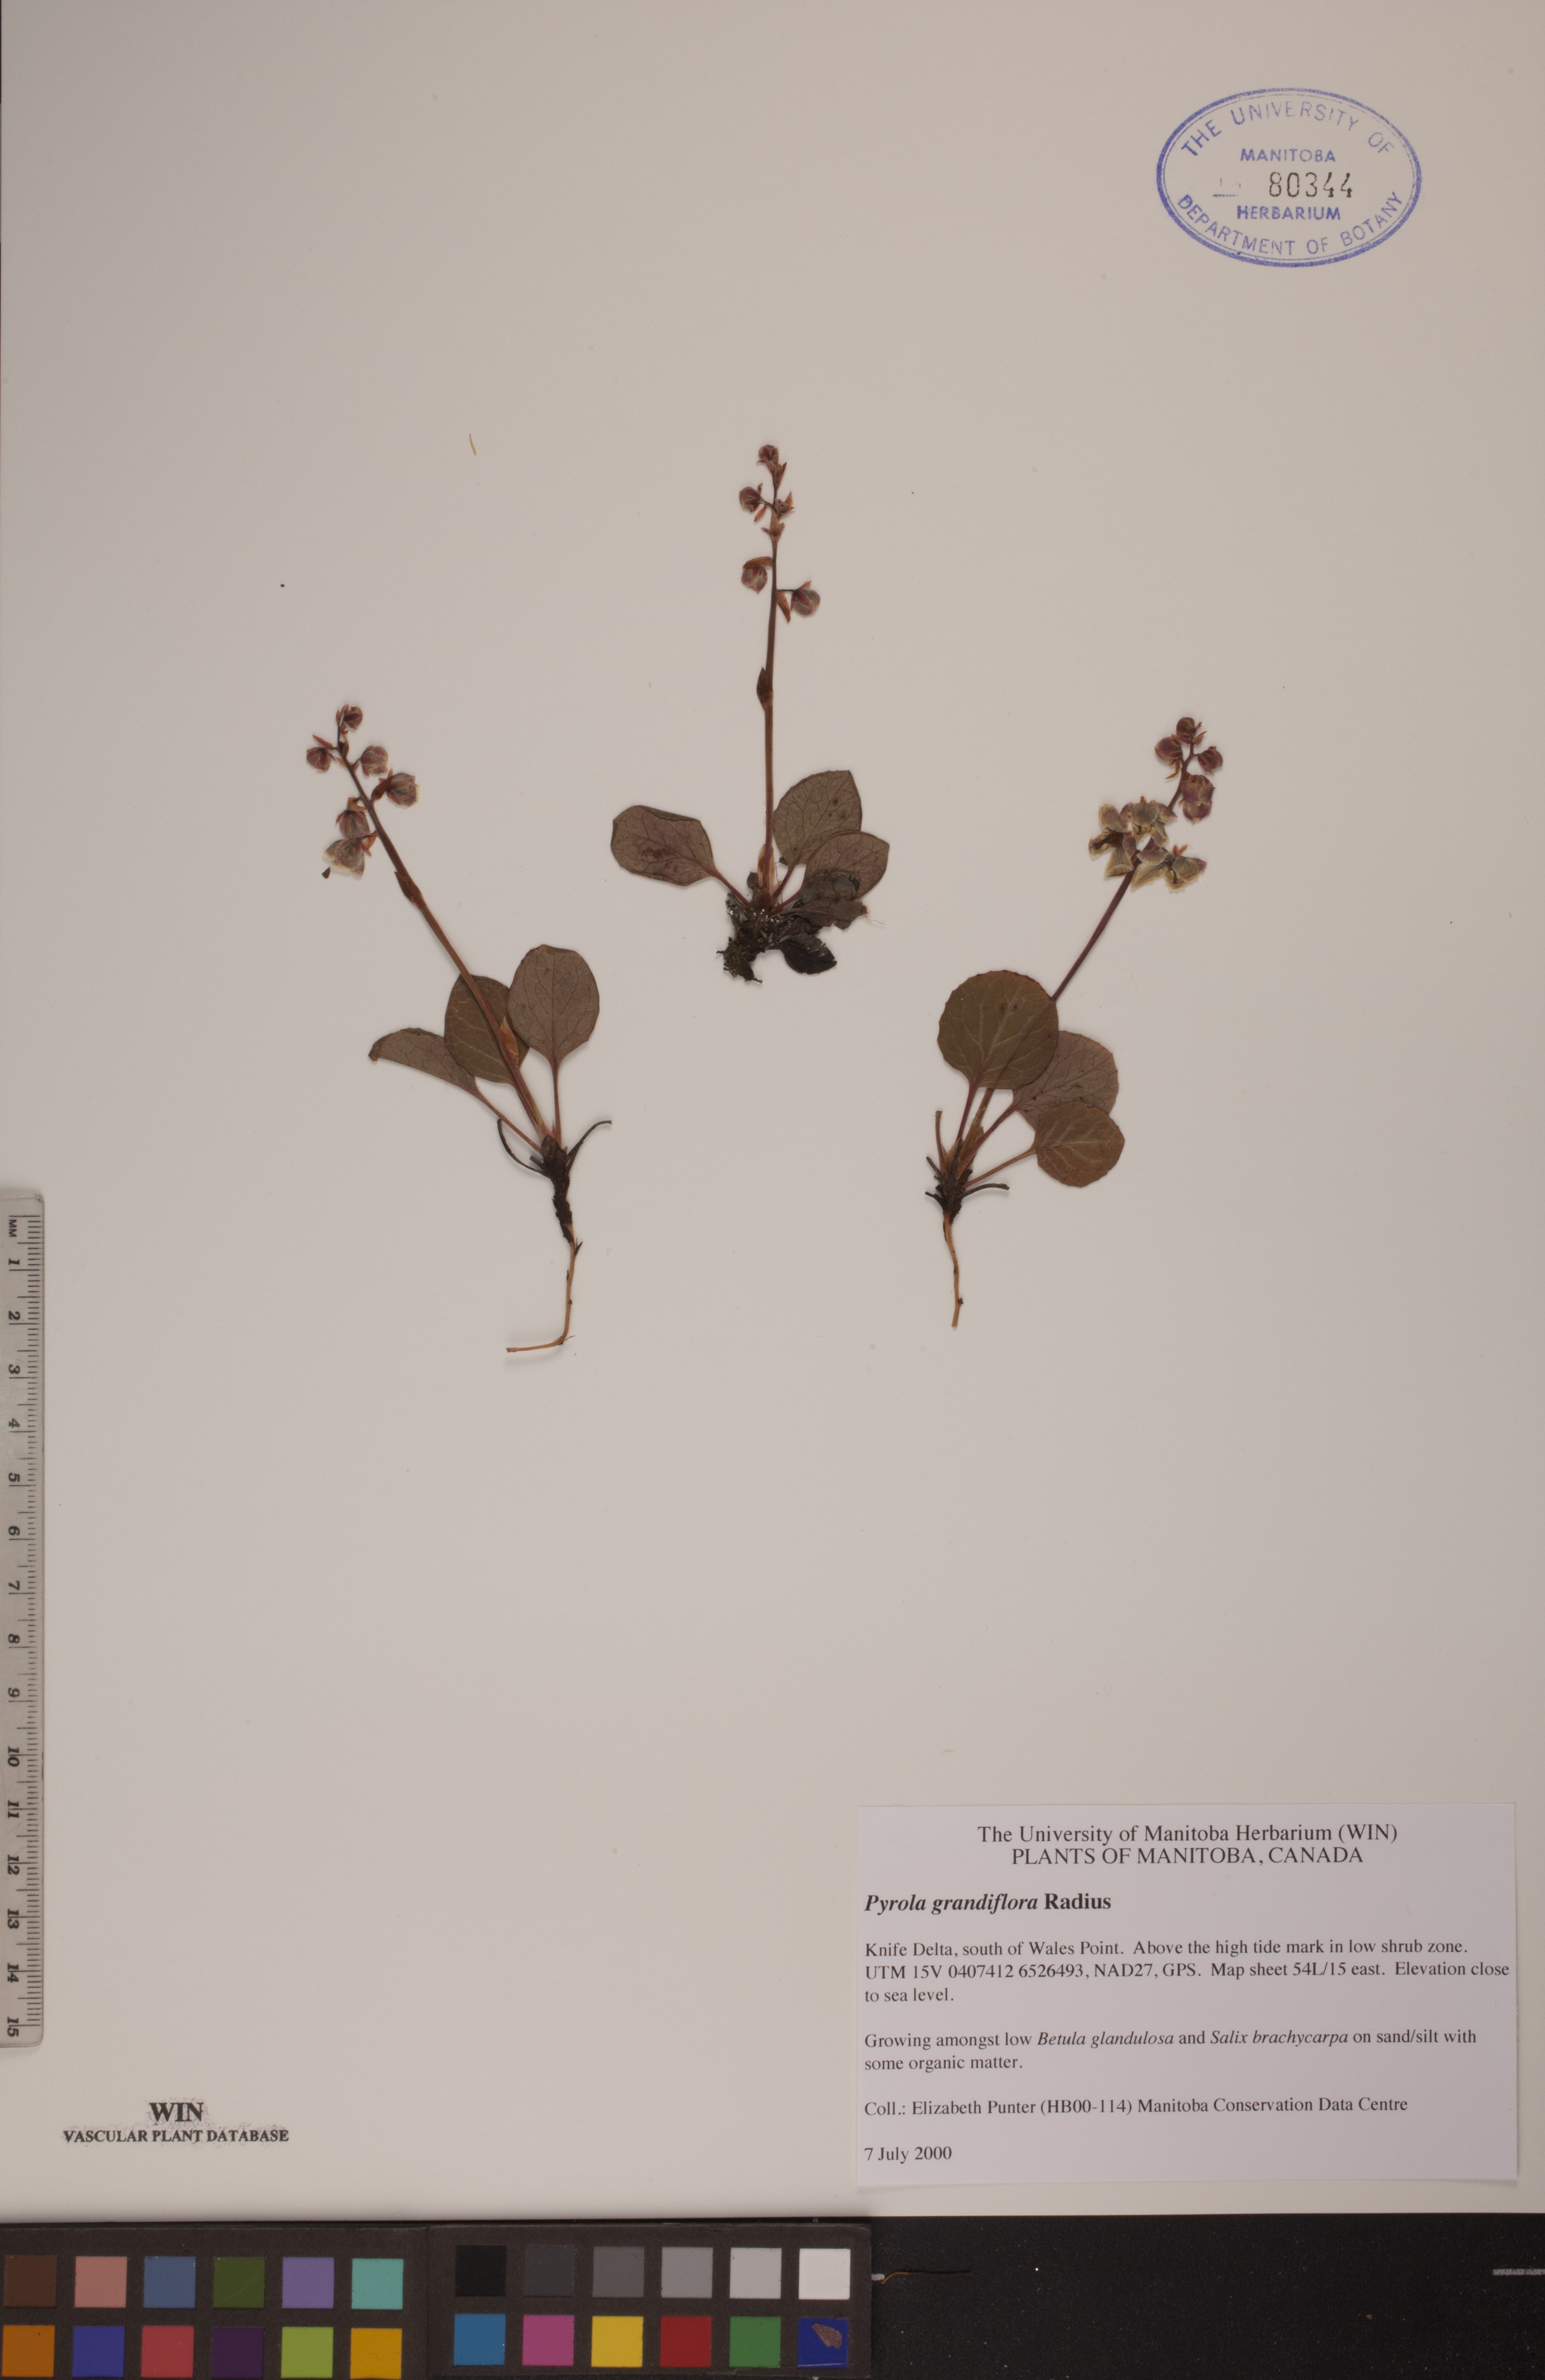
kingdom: Plantae
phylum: Tracheophyta
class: Magnoliopsida
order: Ericales
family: Ericaceae
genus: Pyrola
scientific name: Pyrola grandiflora
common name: Arctic pyrola
